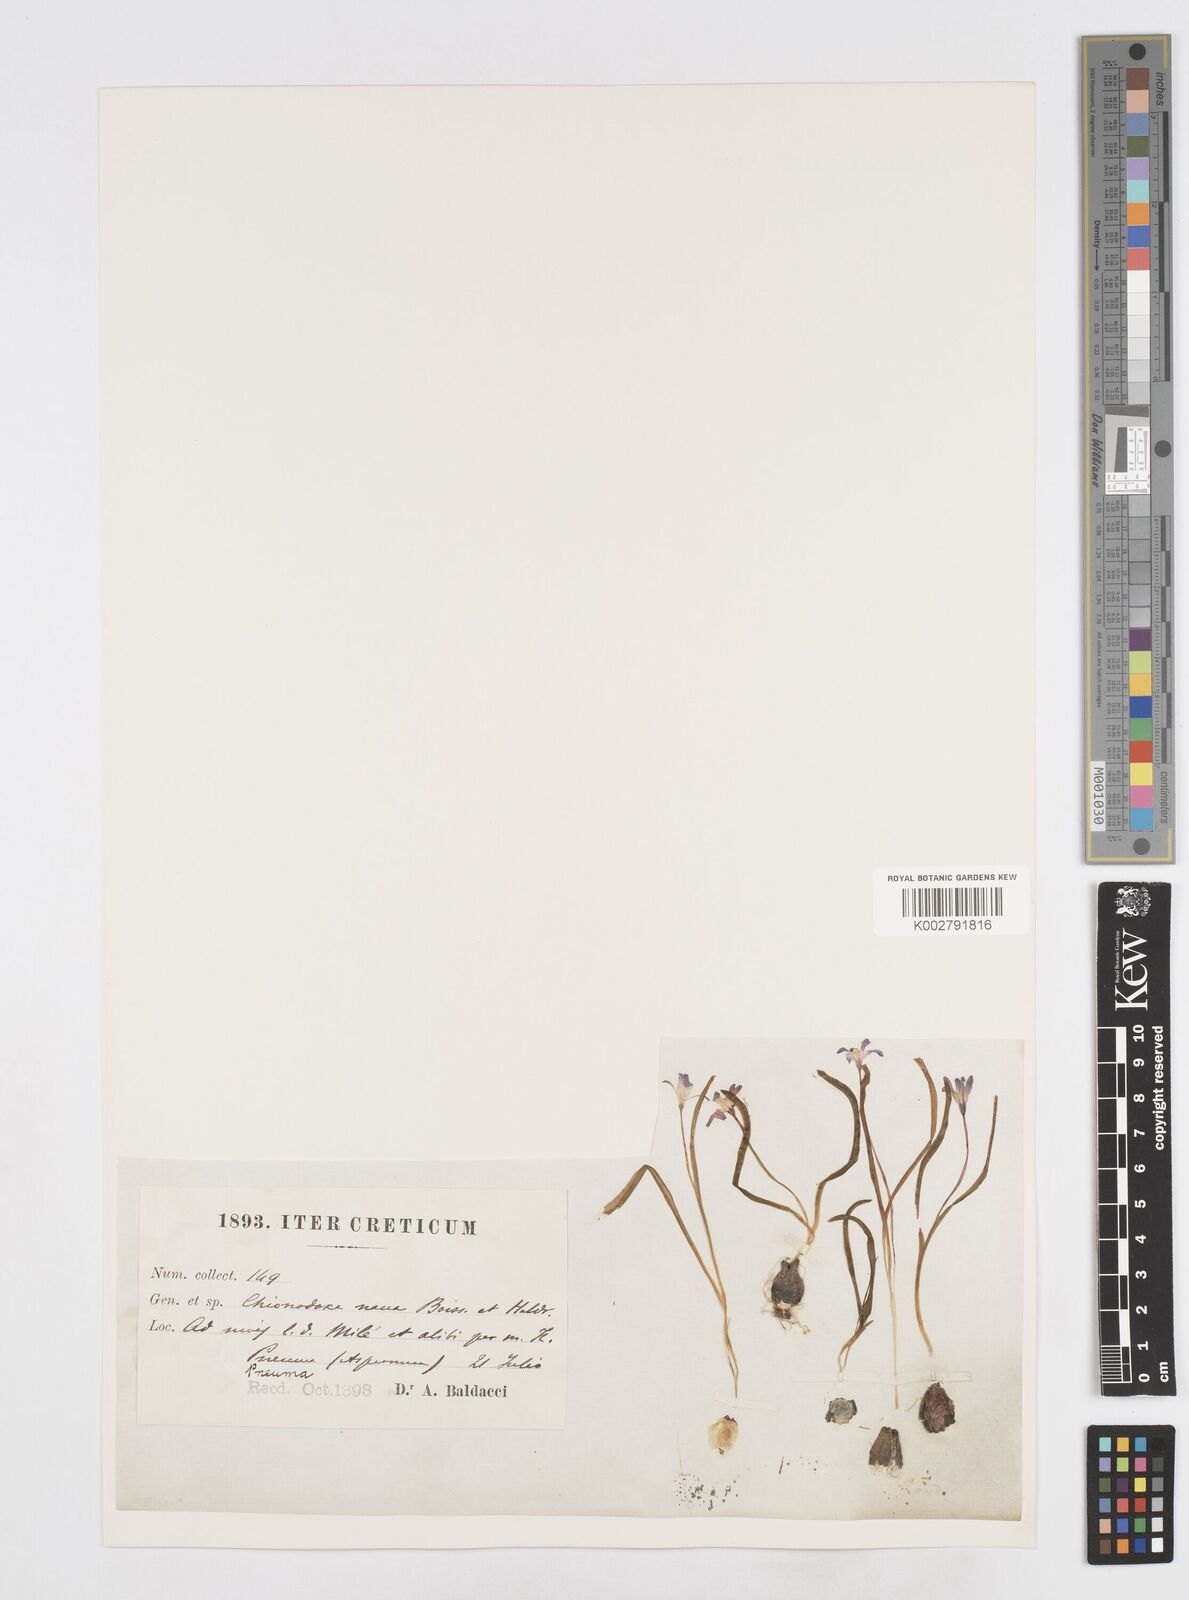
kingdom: Plantae
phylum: Tracheophyta
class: Liliopsida
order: Asparagales
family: Asparagaceae
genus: Scilla
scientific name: Scilla cretica
